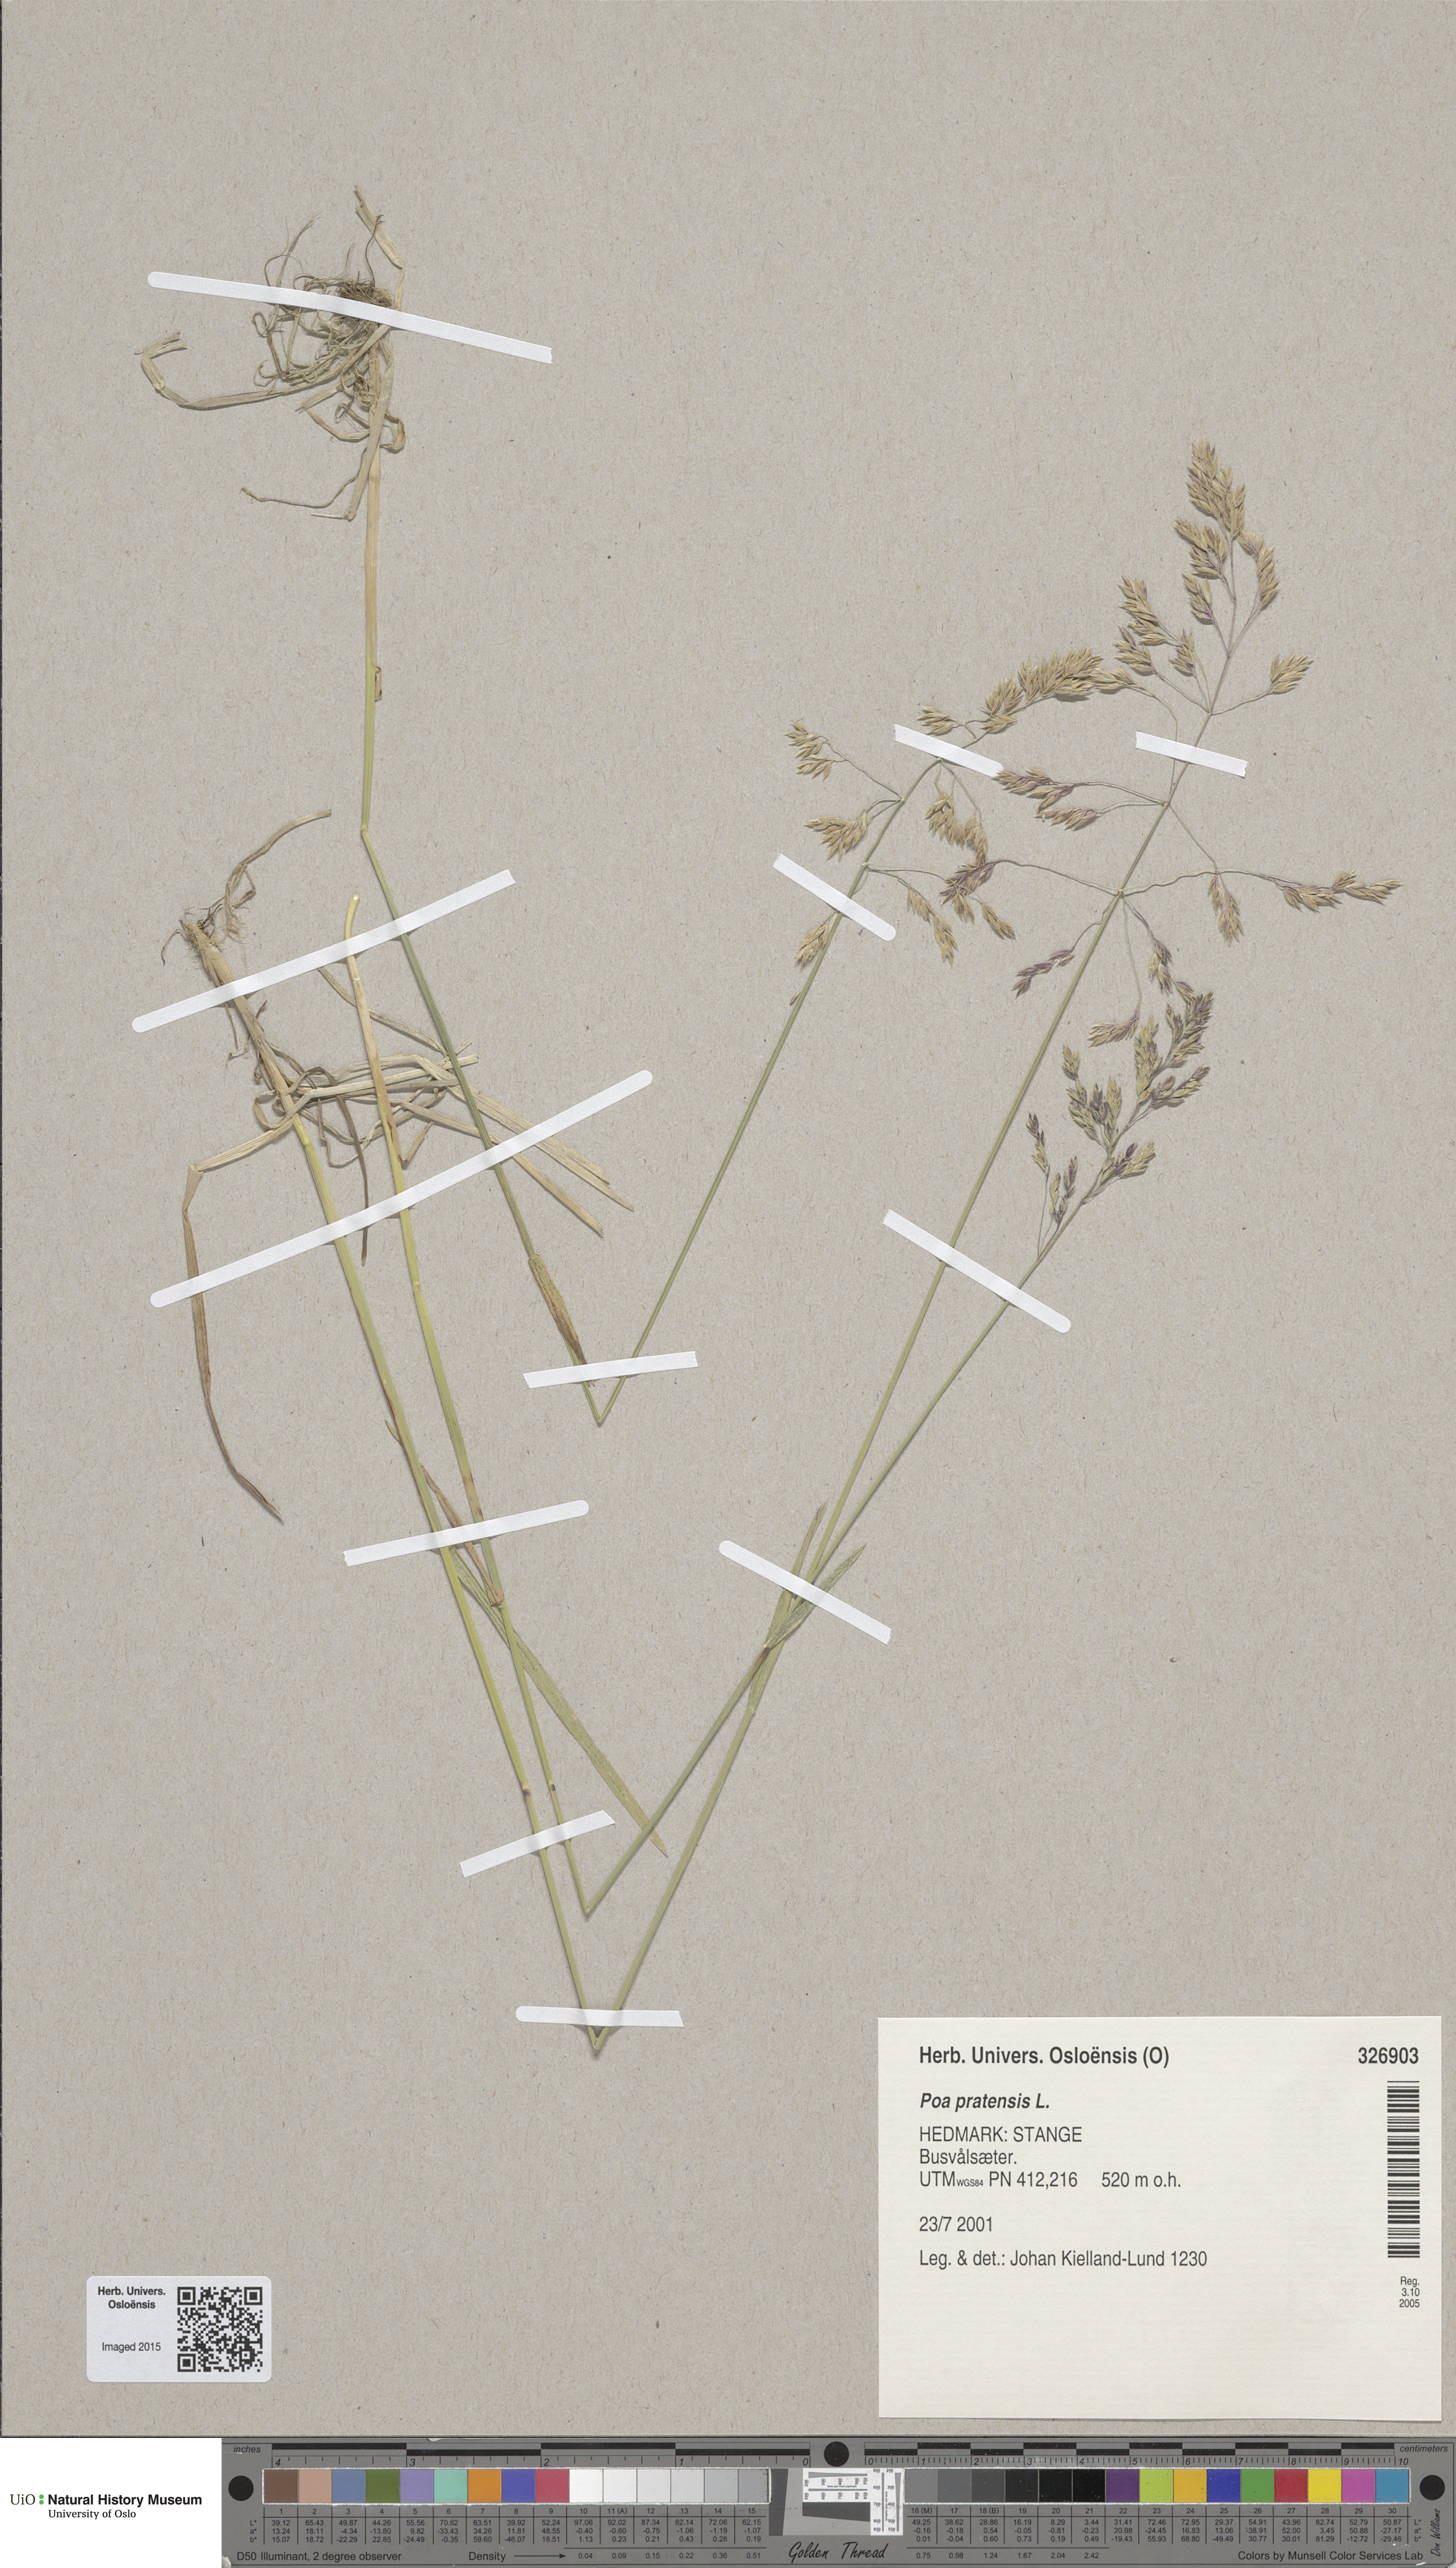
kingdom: Plantae
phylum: Tracheophyta
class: Liliopsida
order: Poales
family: Poaceae
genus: Poa
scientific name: Poa pratensis
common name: Kentucky bluegrass
